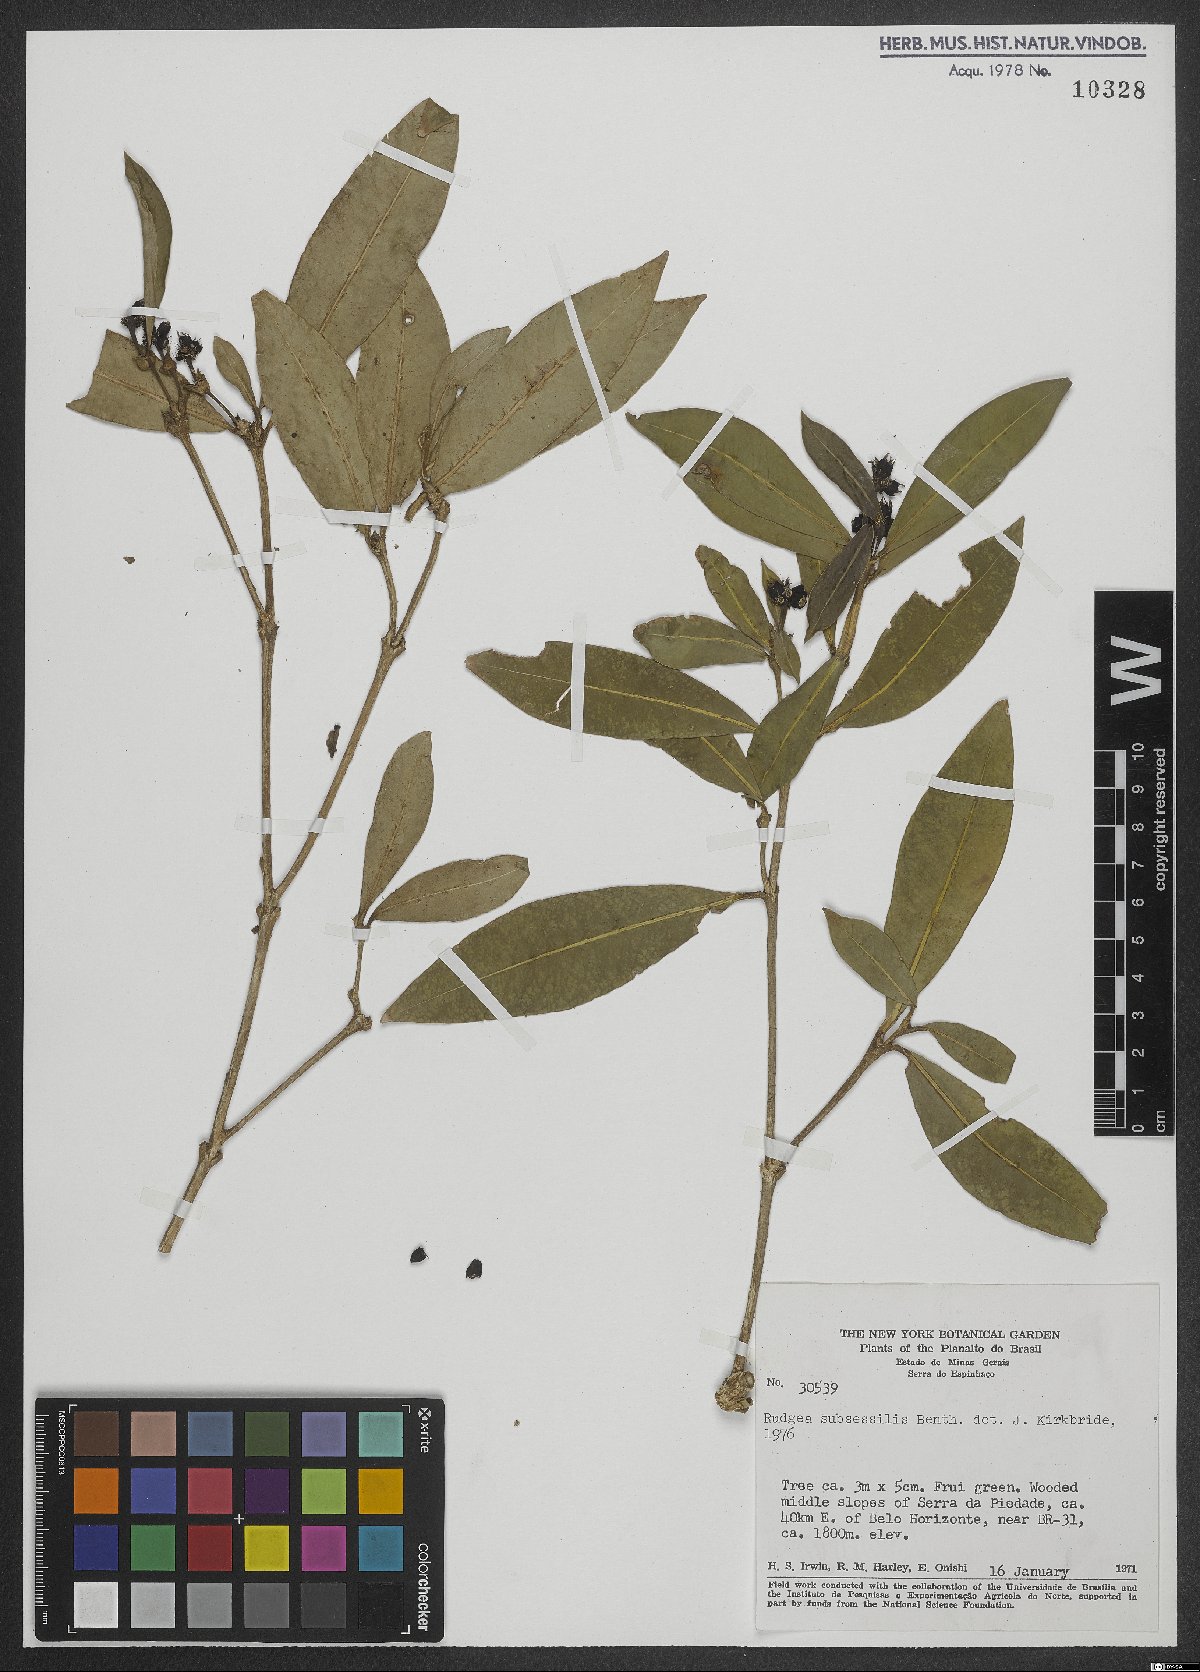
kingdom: Plantae
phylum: Tracheophyta
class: Magnoliopsida
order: Gentianales
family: Rubiaceae
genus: Rudgea
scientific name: Rudgea sessilis
